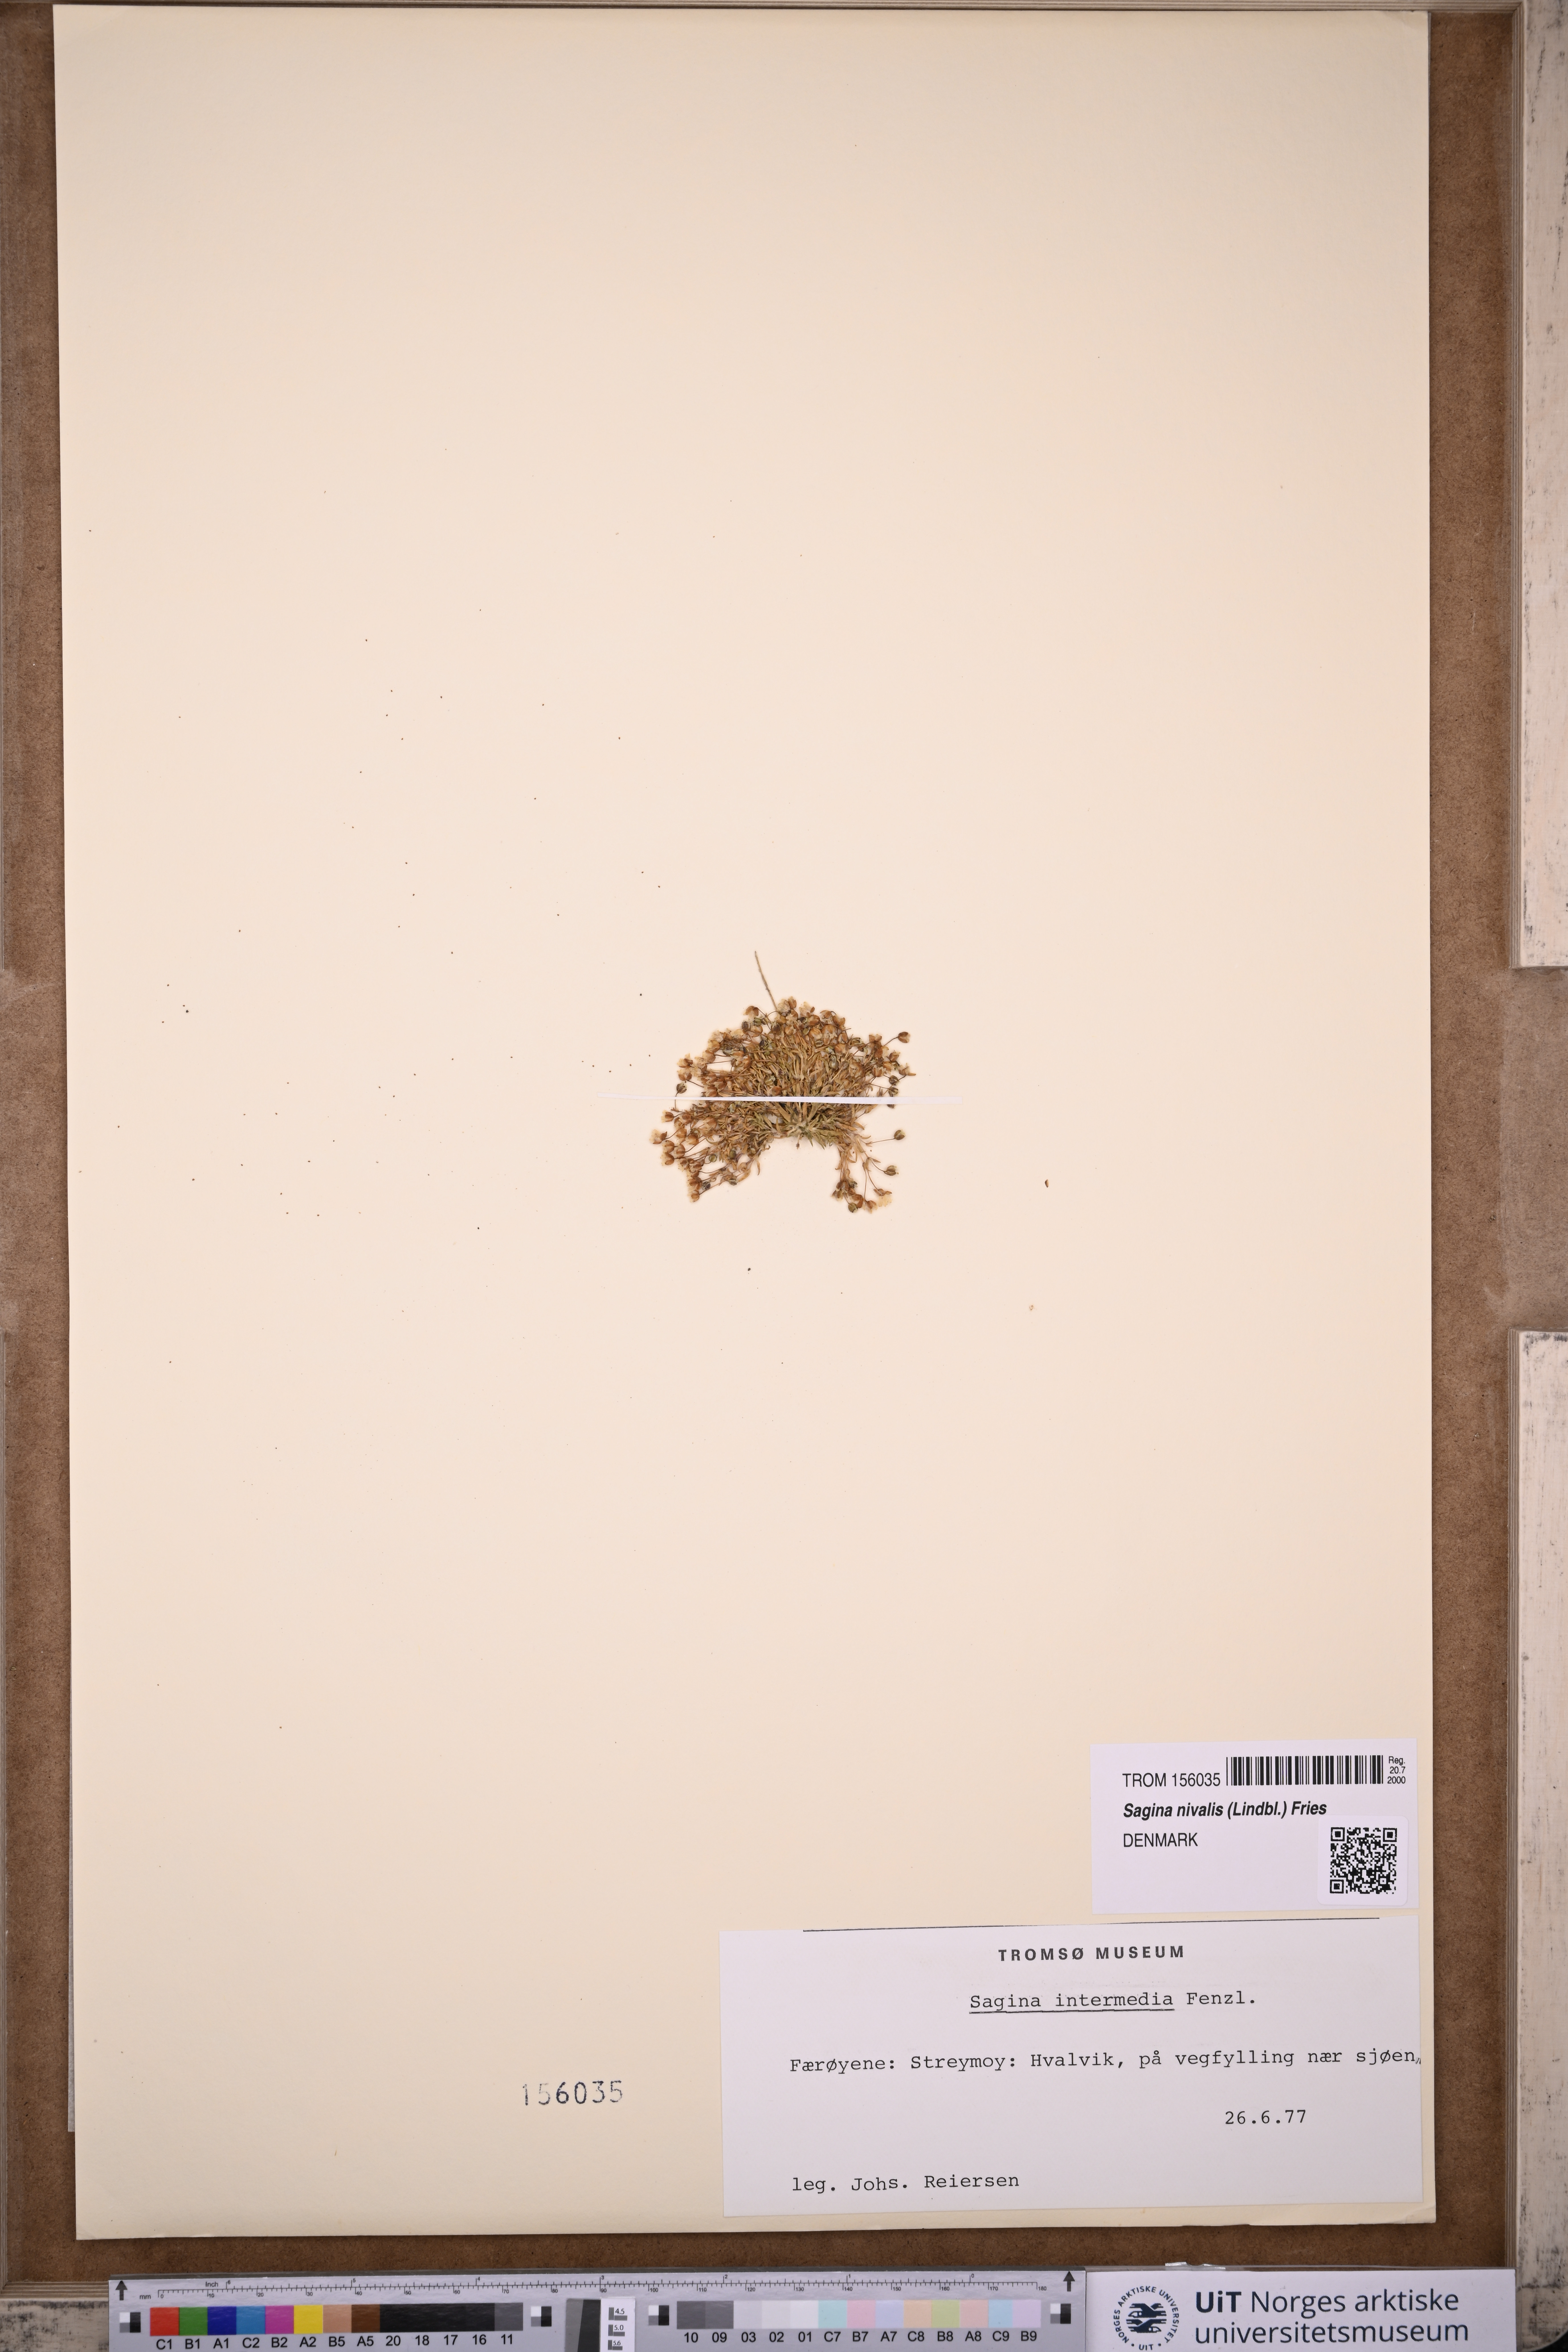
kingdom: Plantae
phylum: Tracheophyta
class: Magnoliopsida
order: Caryophyllales
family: Caryophyllaceae
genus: Sagina
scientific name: Sagina nivalis
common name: Snow pearlwort
